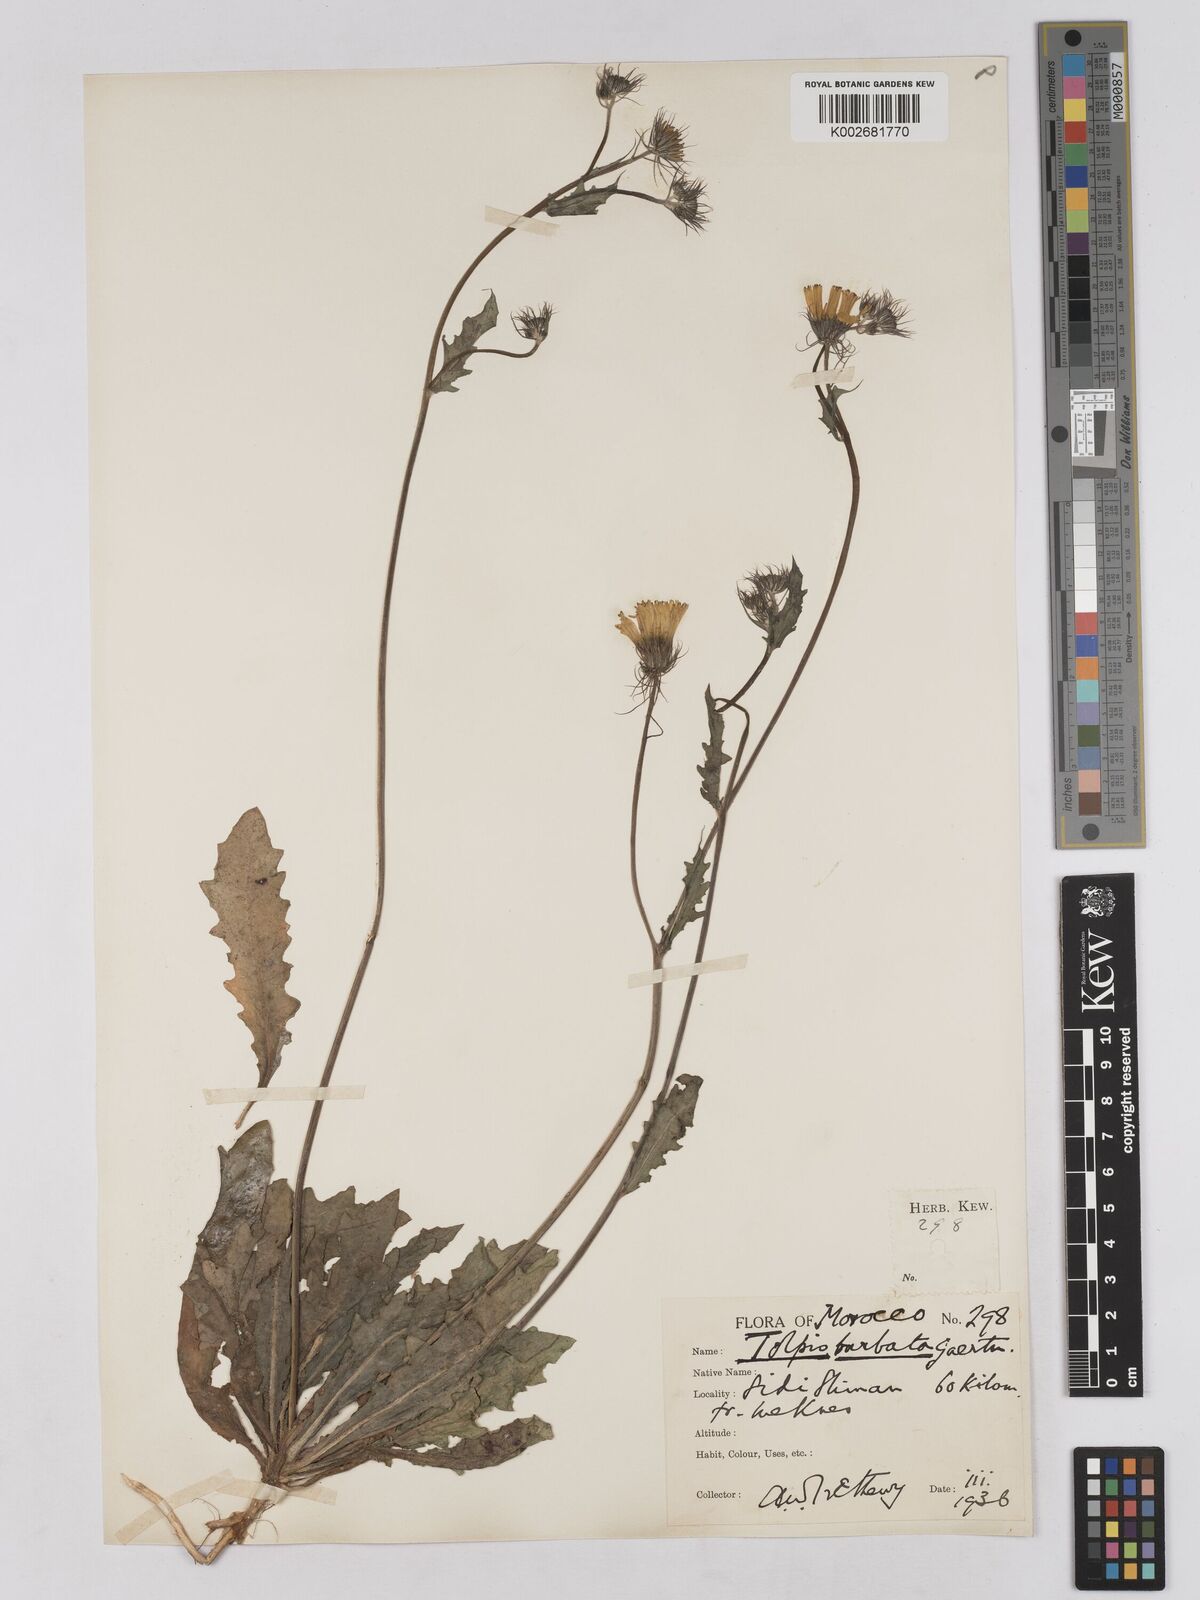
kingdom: Plantae
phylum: Tracheophyta
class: Magnoliopsida
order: Asterales
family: Asteraceae
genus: Tolpis
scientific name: Tolpis barbata
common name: Yellow hawkweed
